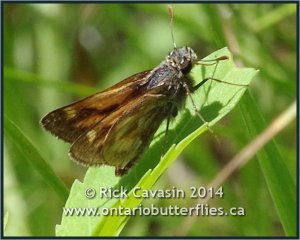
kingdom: Animalia
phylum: Arthropoda
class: Insecta
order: Lepidoptera
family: Hesperiidae
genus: Polites
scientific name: Polites
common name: Long Dash Skipper
